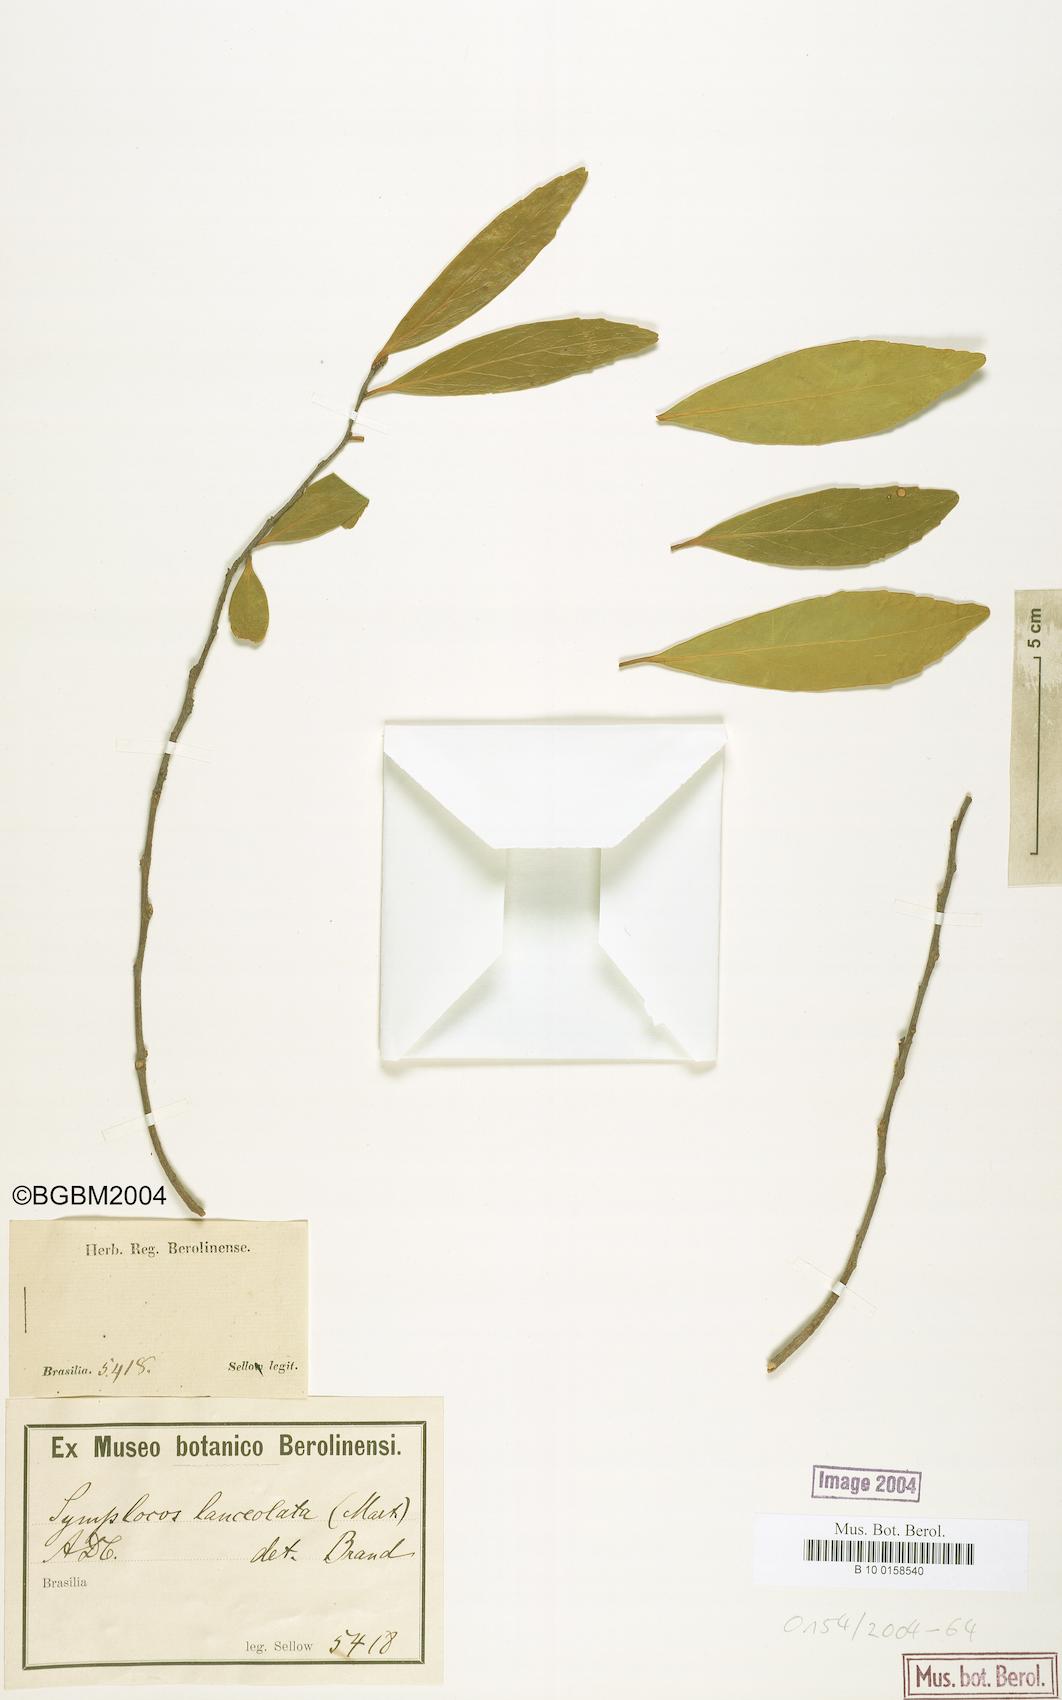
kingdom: Plantae
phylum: Tracheophyta
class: Magnoliopsida
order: Ericales
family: Symplocaceae
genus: Symplocos
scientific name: Symplocos oblongifolia
